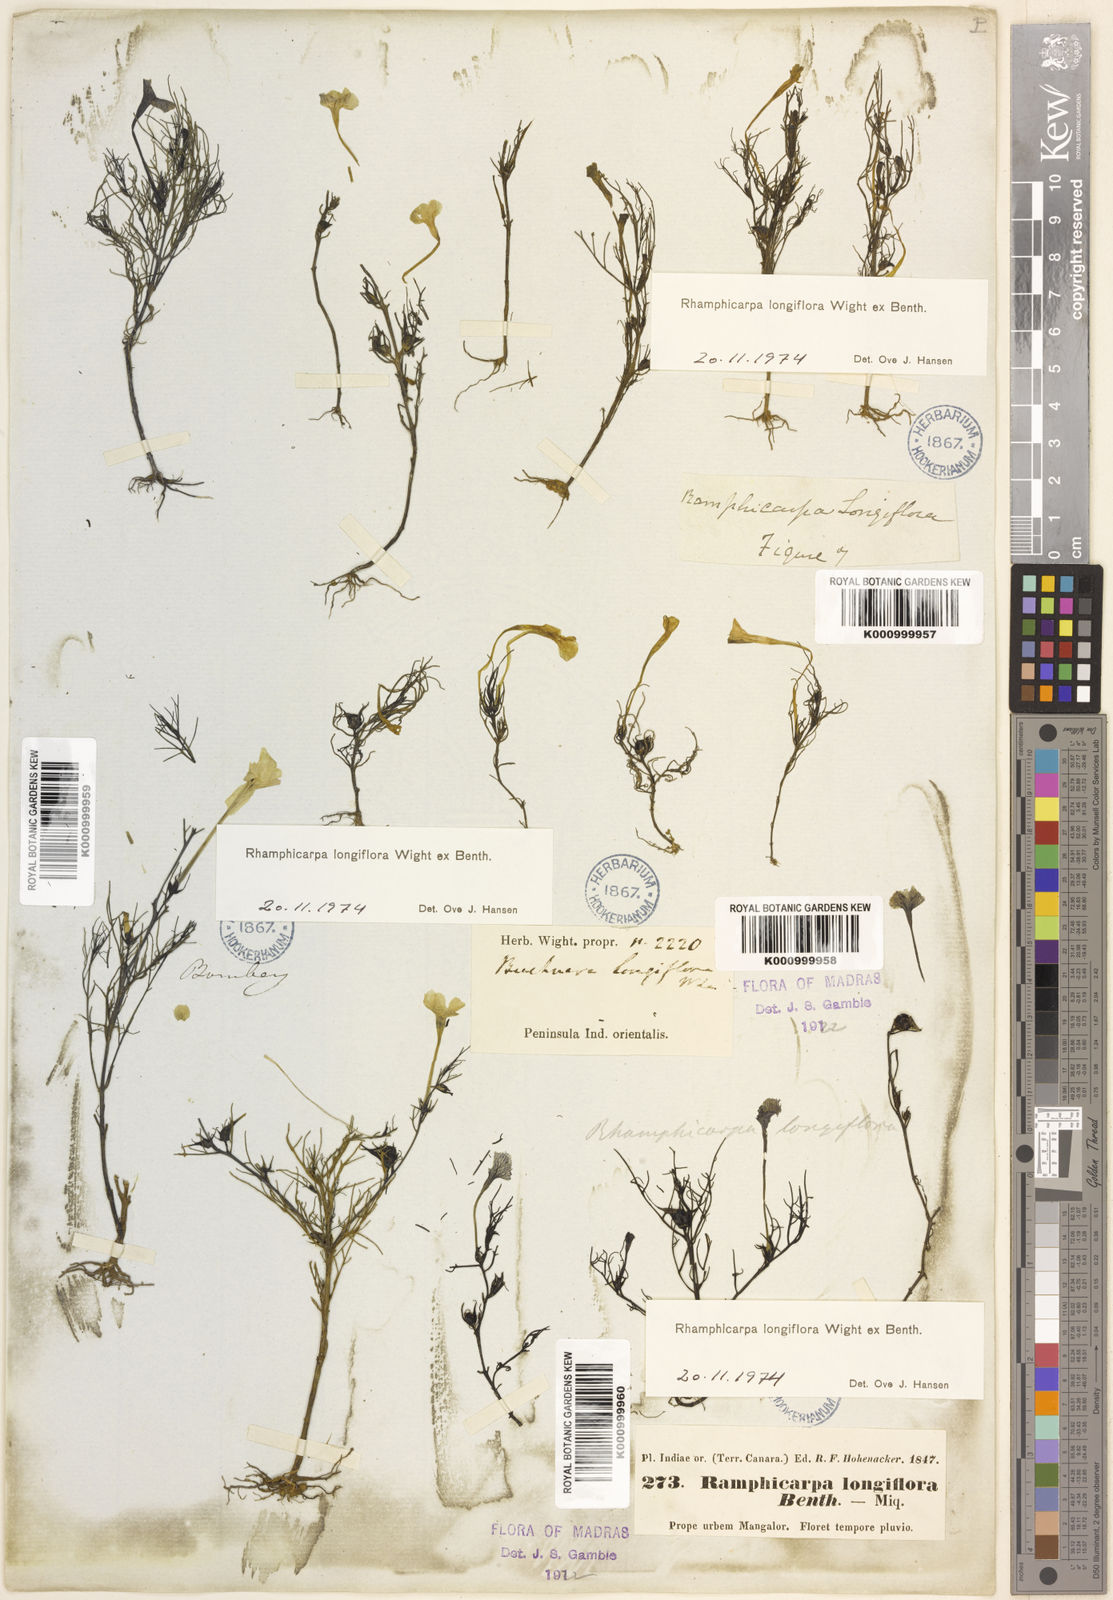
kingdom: Plantae
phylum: Tracheophyta
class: Magnoliopsida
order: Lamiales
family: Orobanchaceae
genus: Rhamphicarpa
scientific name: Rhamphicarpa elongata
